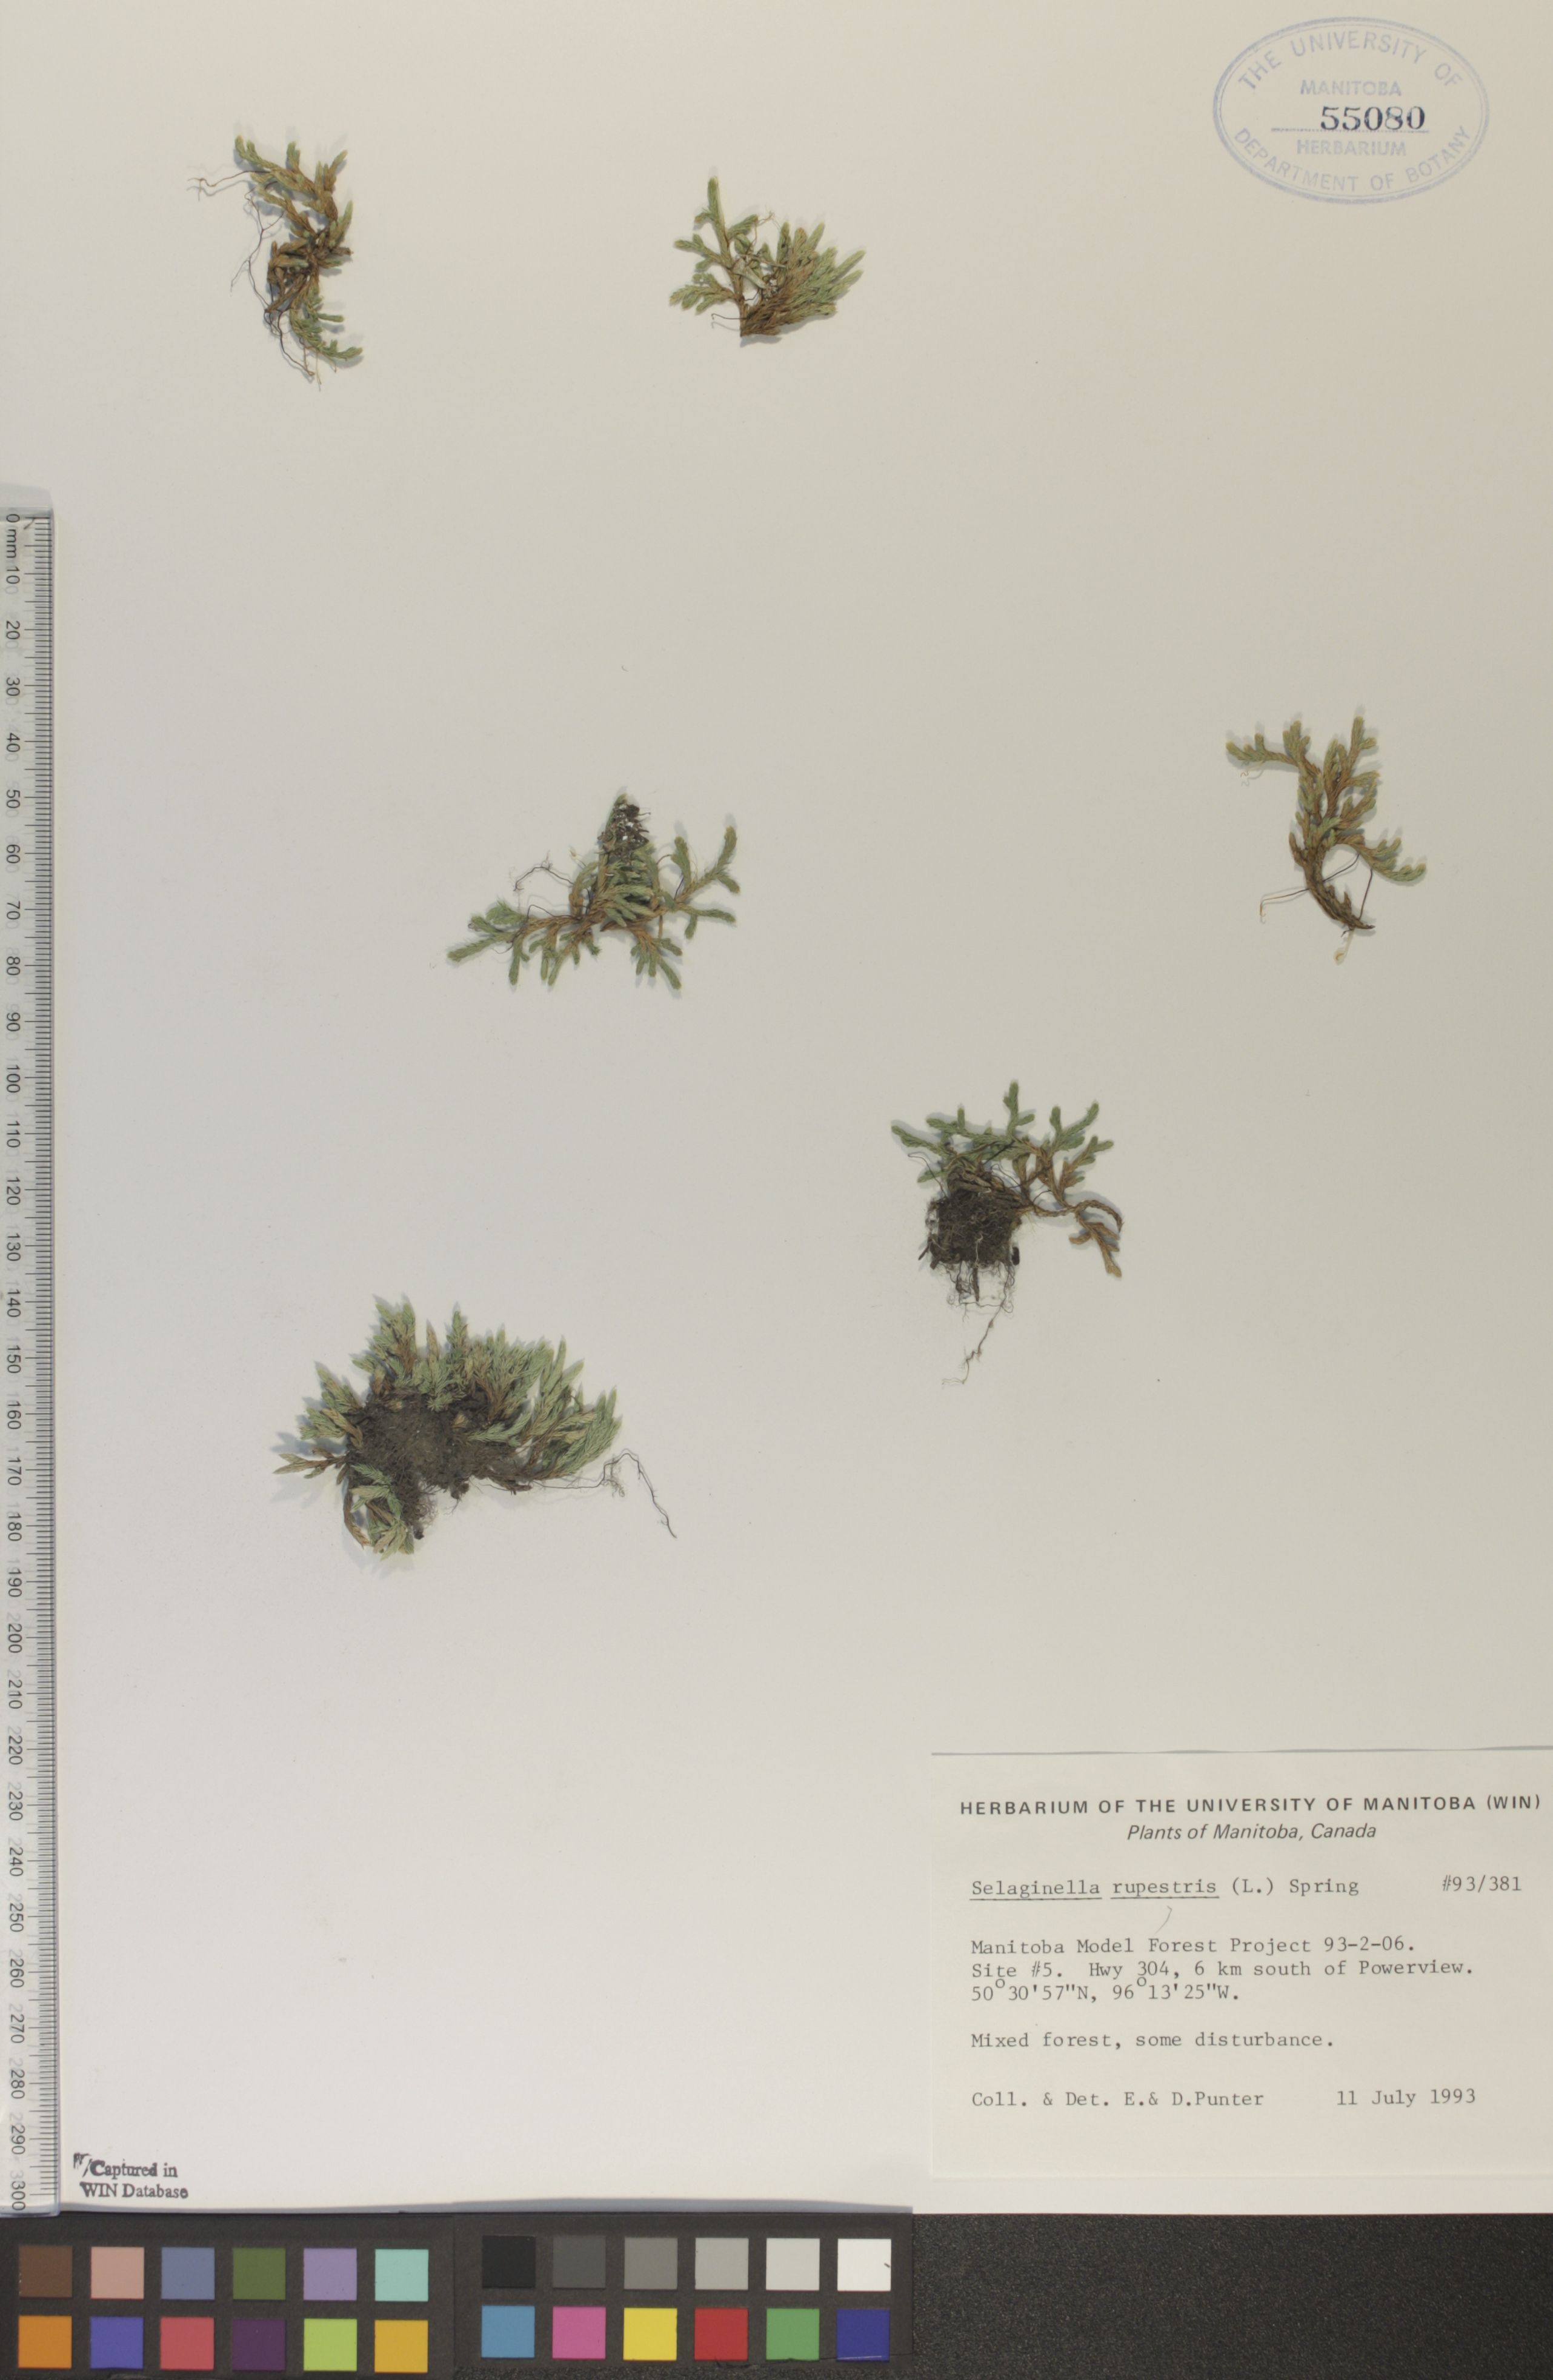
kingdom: Plantae
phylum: Tracheophyta
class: Lycopodiopsida
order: Selaginellales
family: Selaginellaceae
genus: Selaginella
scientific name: Selaginella rupestris
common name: Dwarf spikemoss
